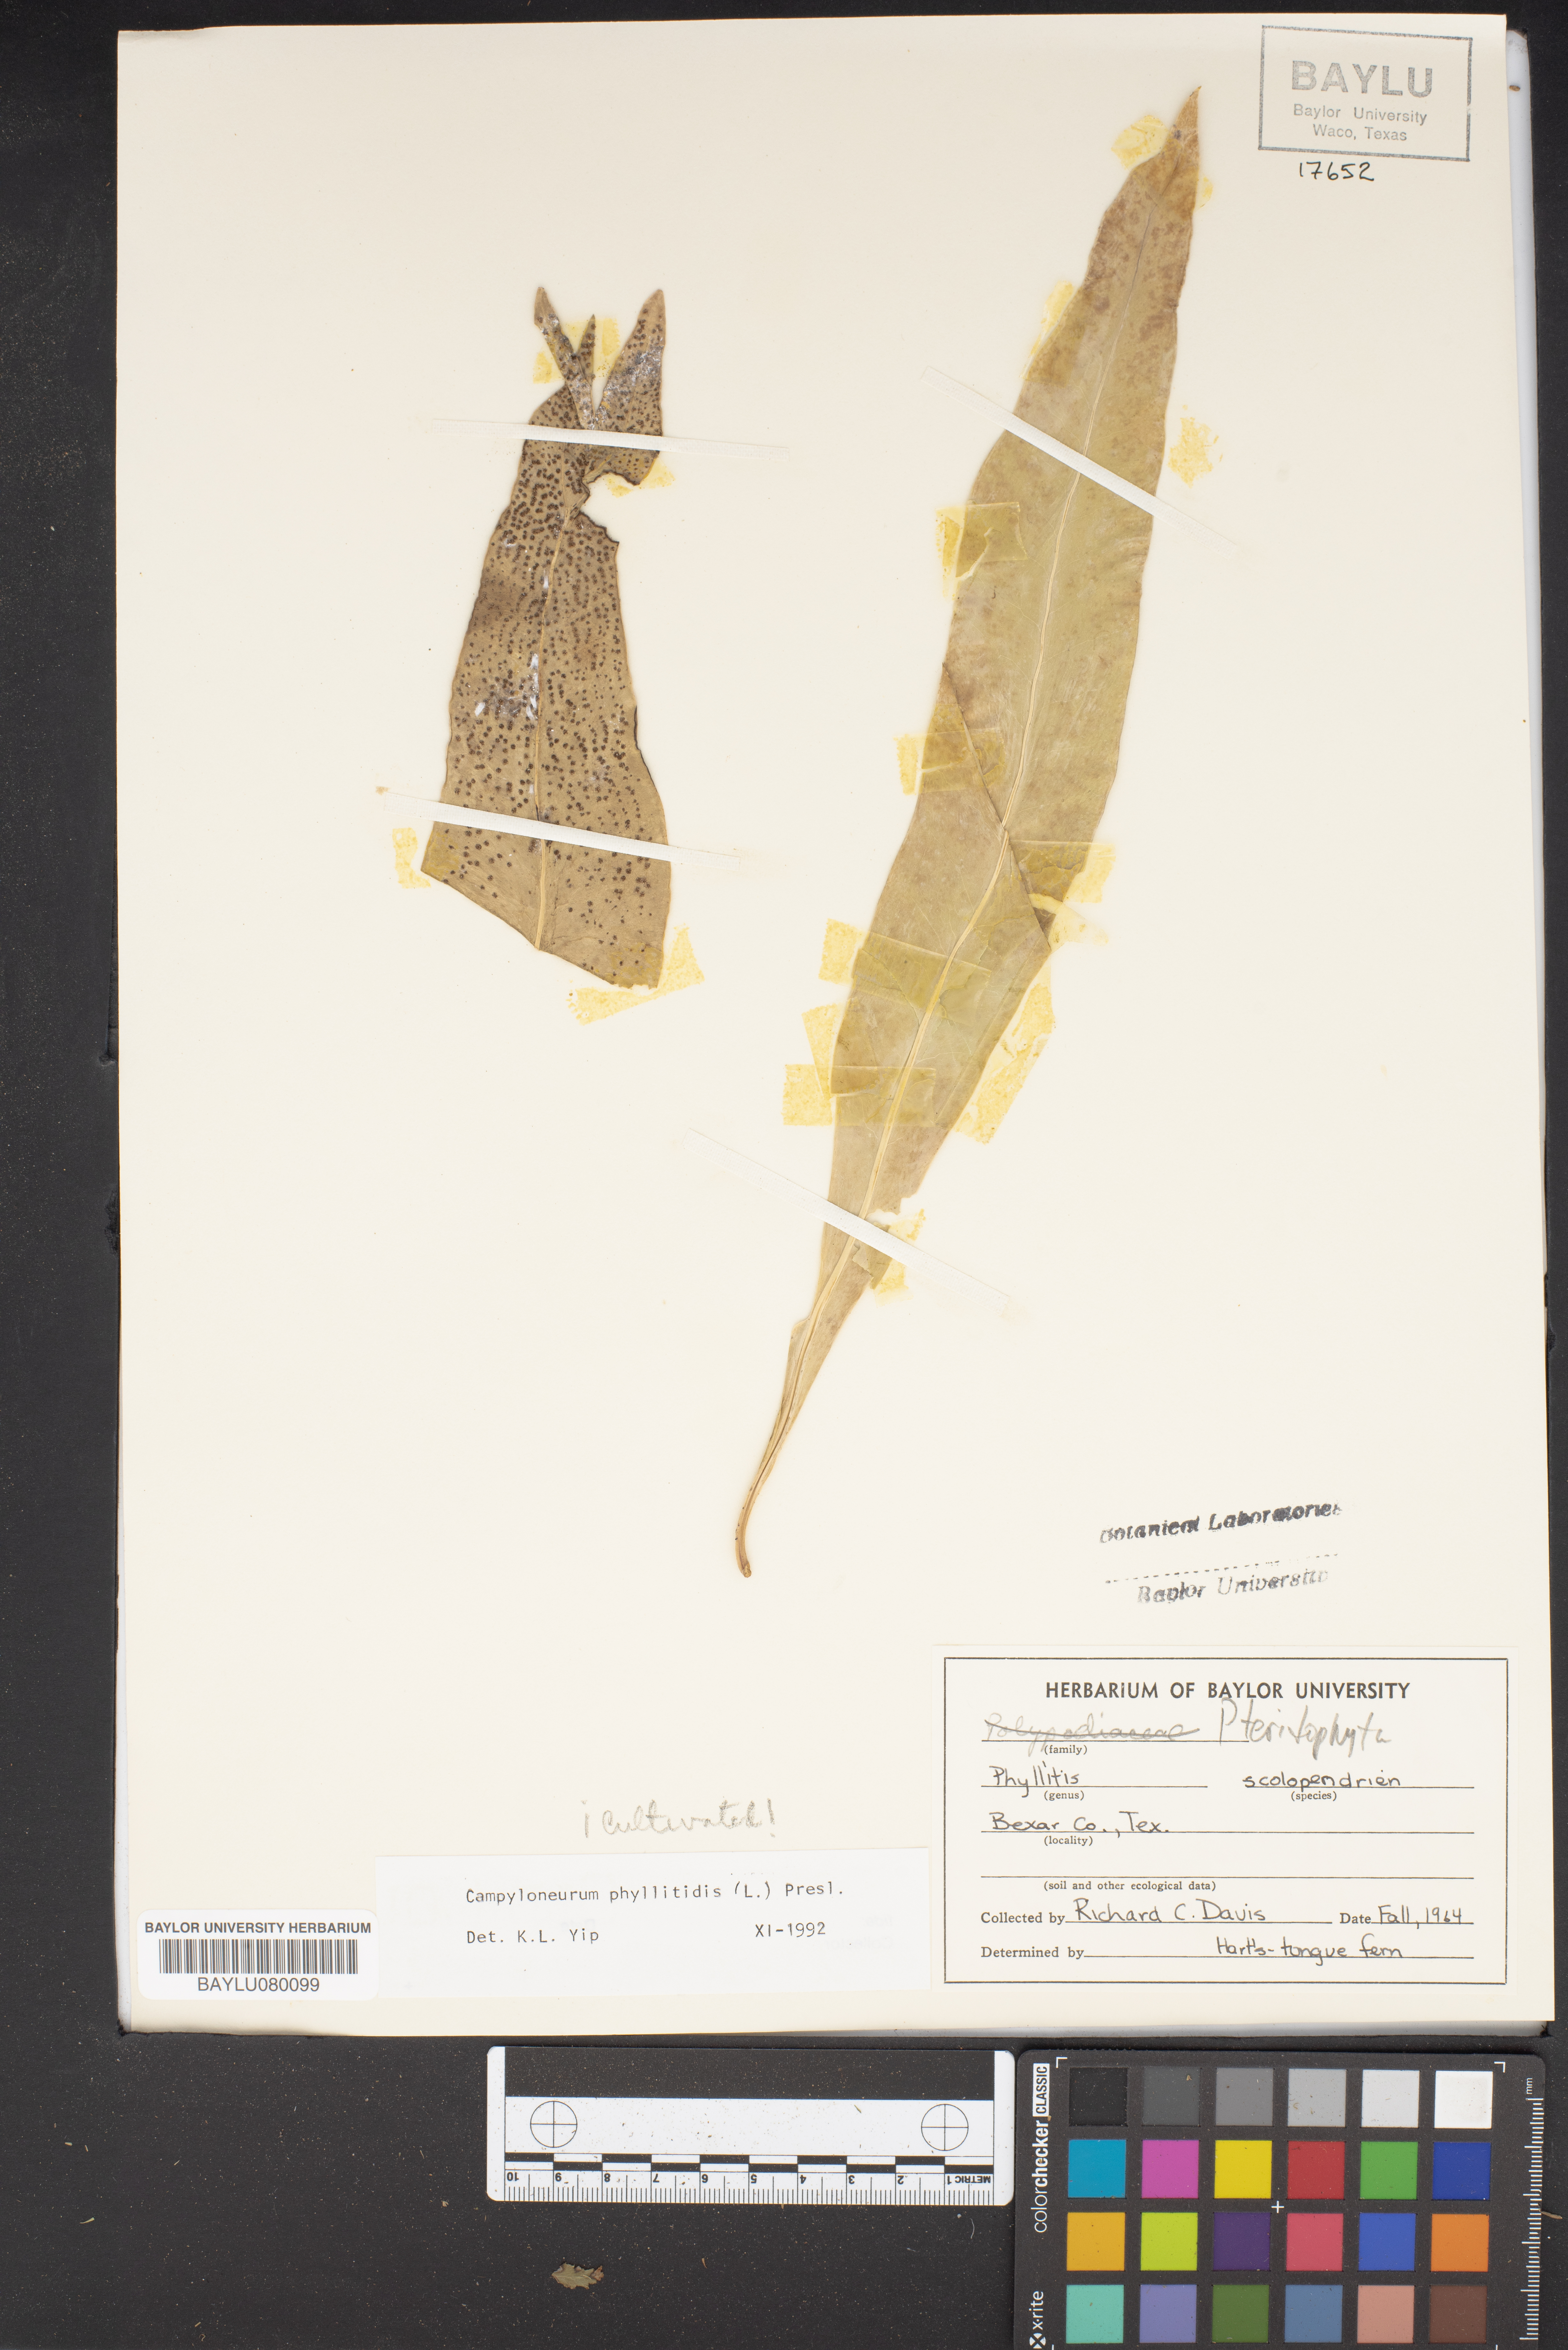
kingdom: Plantae
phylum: Tracheophyta
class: Polypodiopsida
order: Polypodiales
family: Polypodiaceae
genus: Campyloneurum
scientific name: Campyloneurum phyllitidis
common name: Cow-tongue fern
